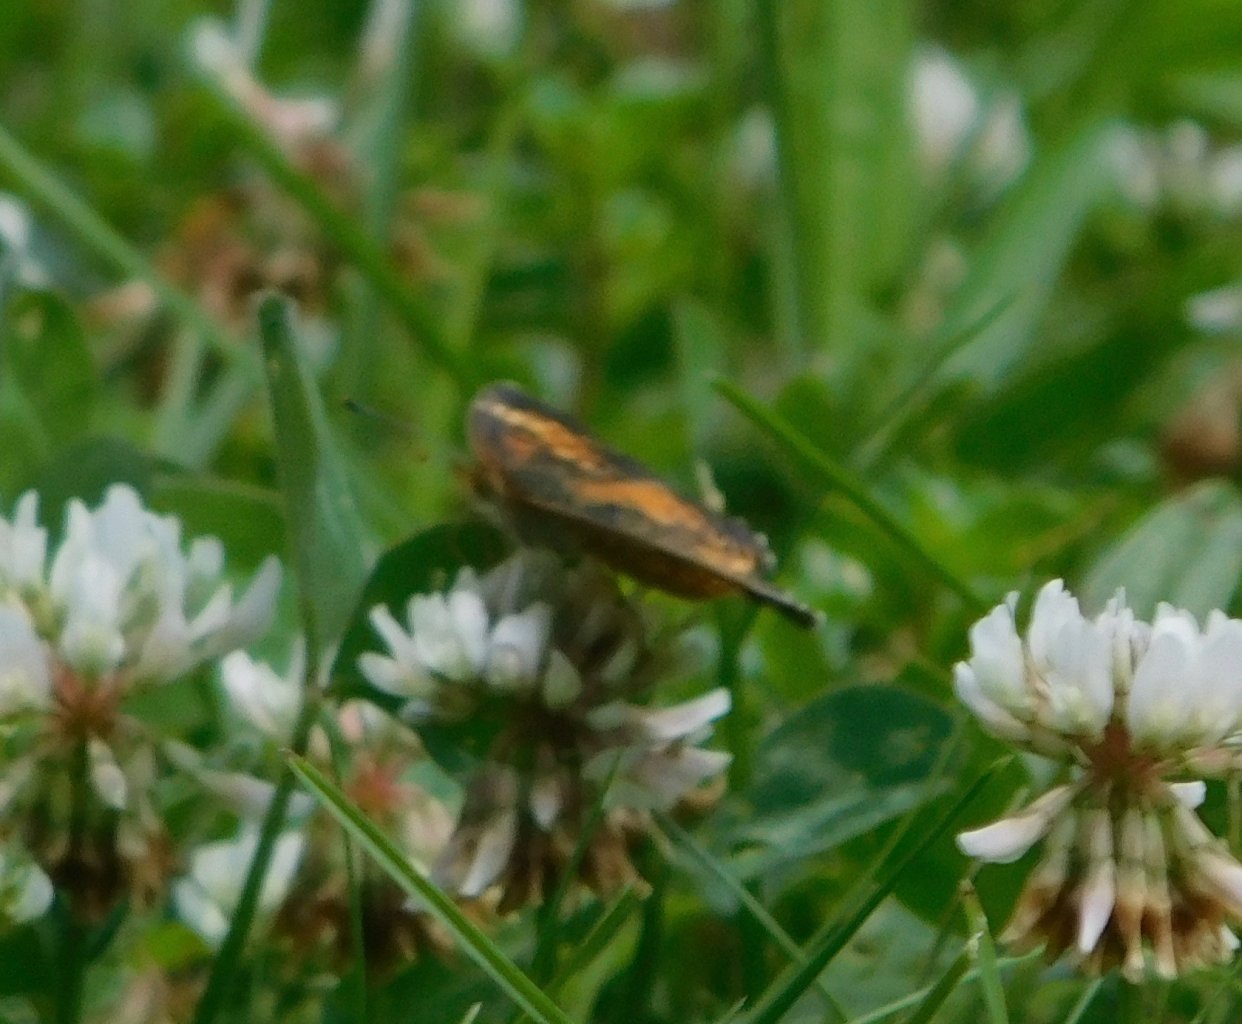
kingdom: Animalia
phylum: Arthropoda
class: Insecta
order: Lepidoptera
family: Nymphalidae
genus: Phyciodes
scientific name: Phyciodes
